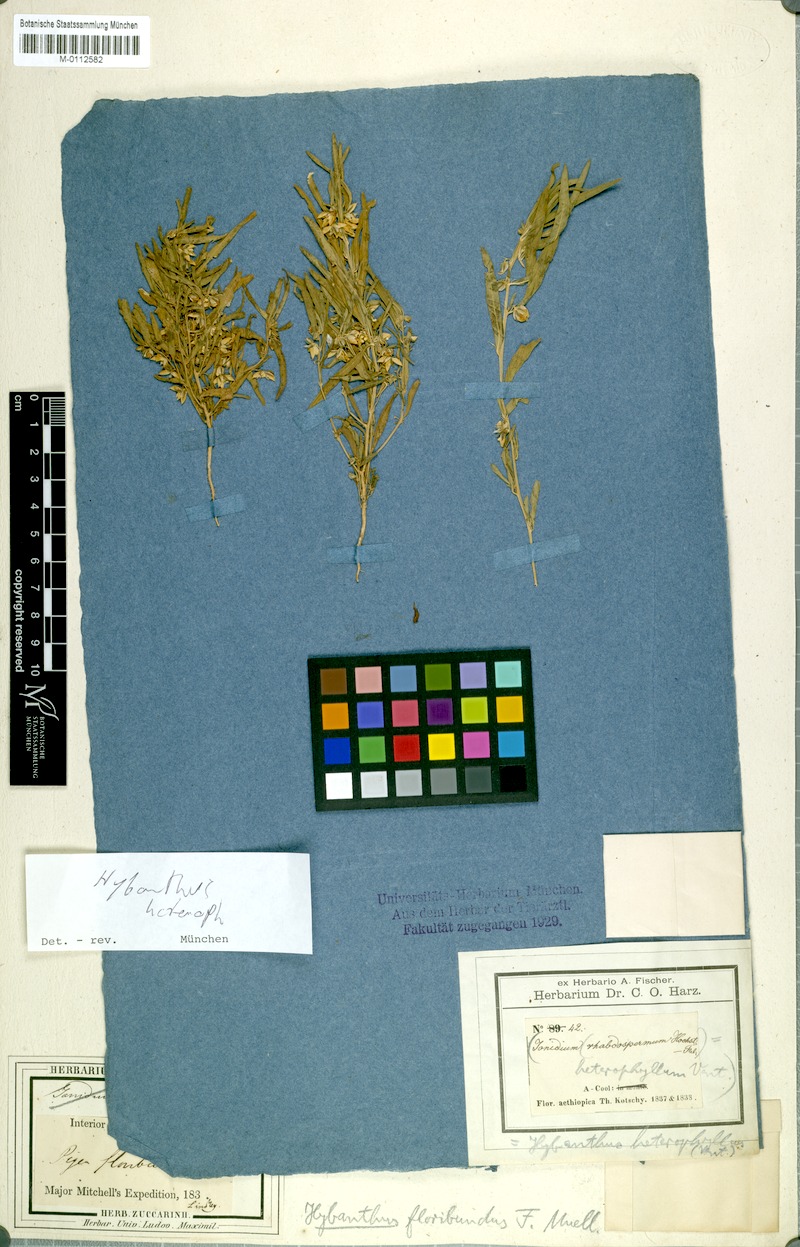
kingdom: Plantae
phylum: Tracheophyta
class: Magnoliopsida
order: Malpighiales
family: Violaceae
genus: Pigea
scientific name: Pigea floribunda
